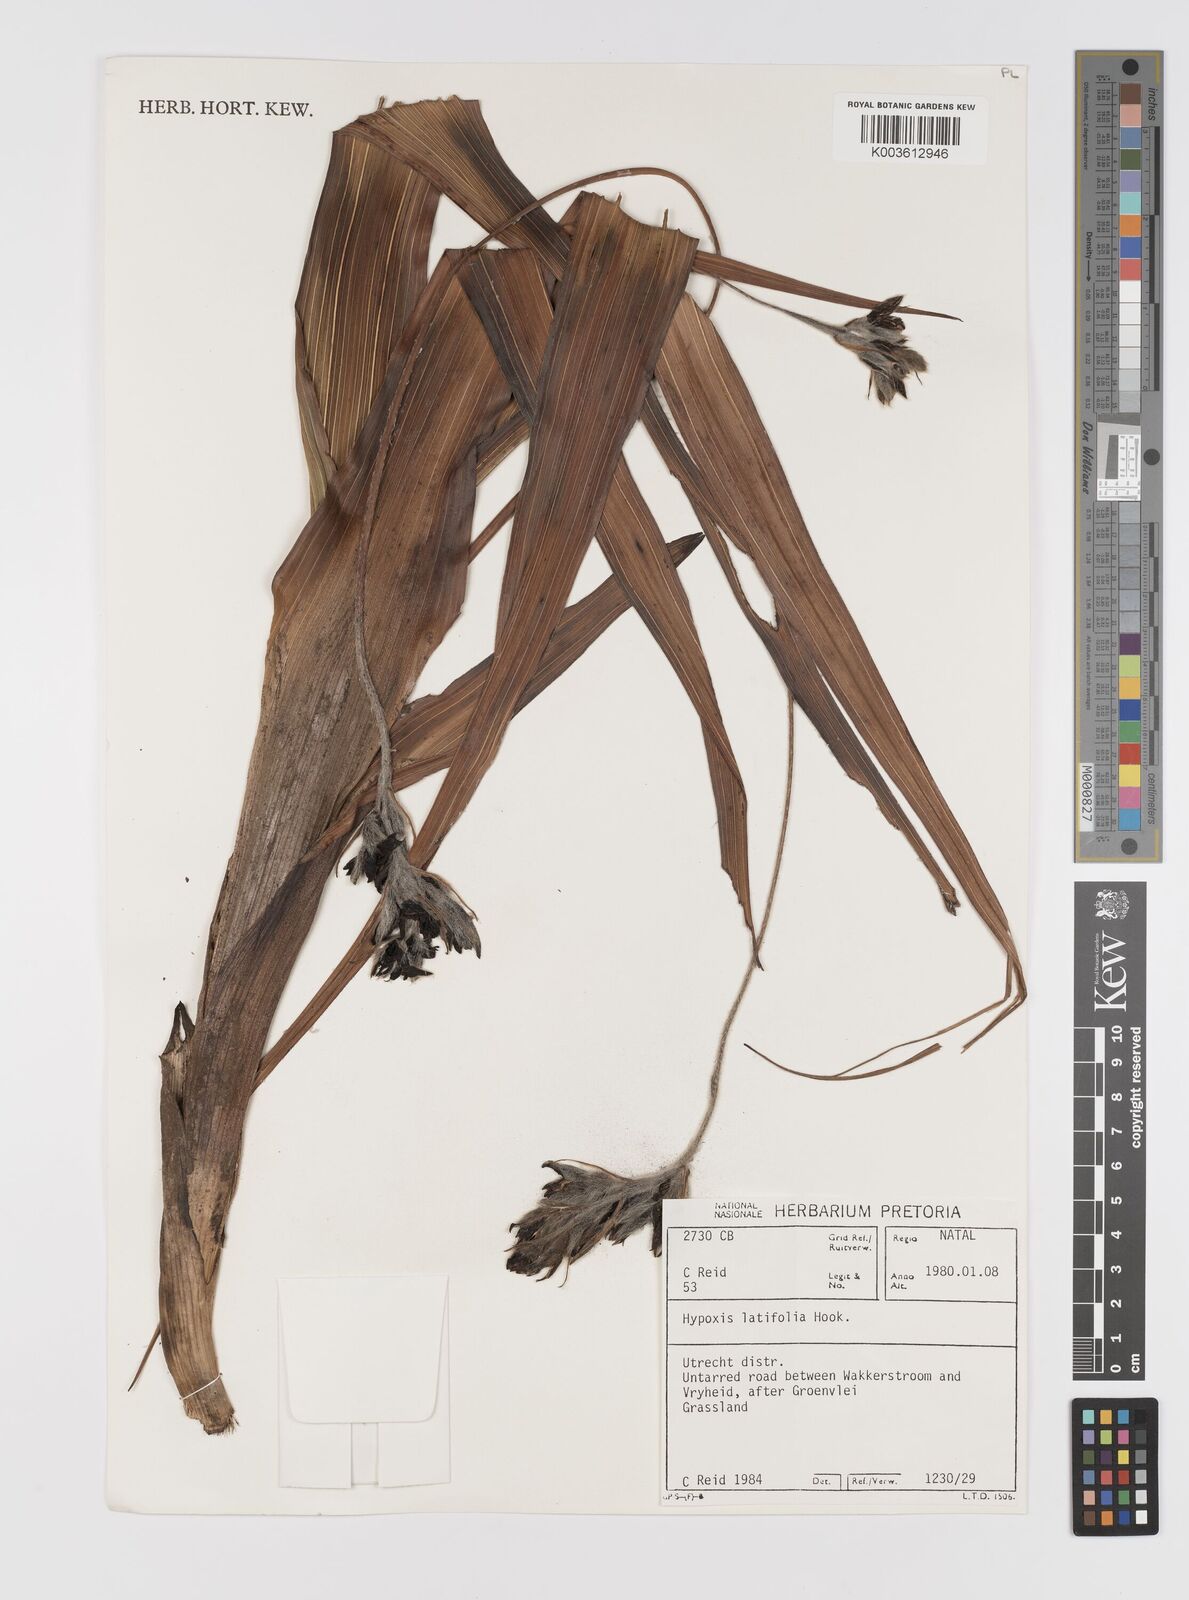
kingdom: Plantae
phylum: Tracheophyta
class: Liliopsida
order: Asparagales
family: Hypoxidaceae
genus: Hypoxis
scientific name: Hypoxis colchicifolia
